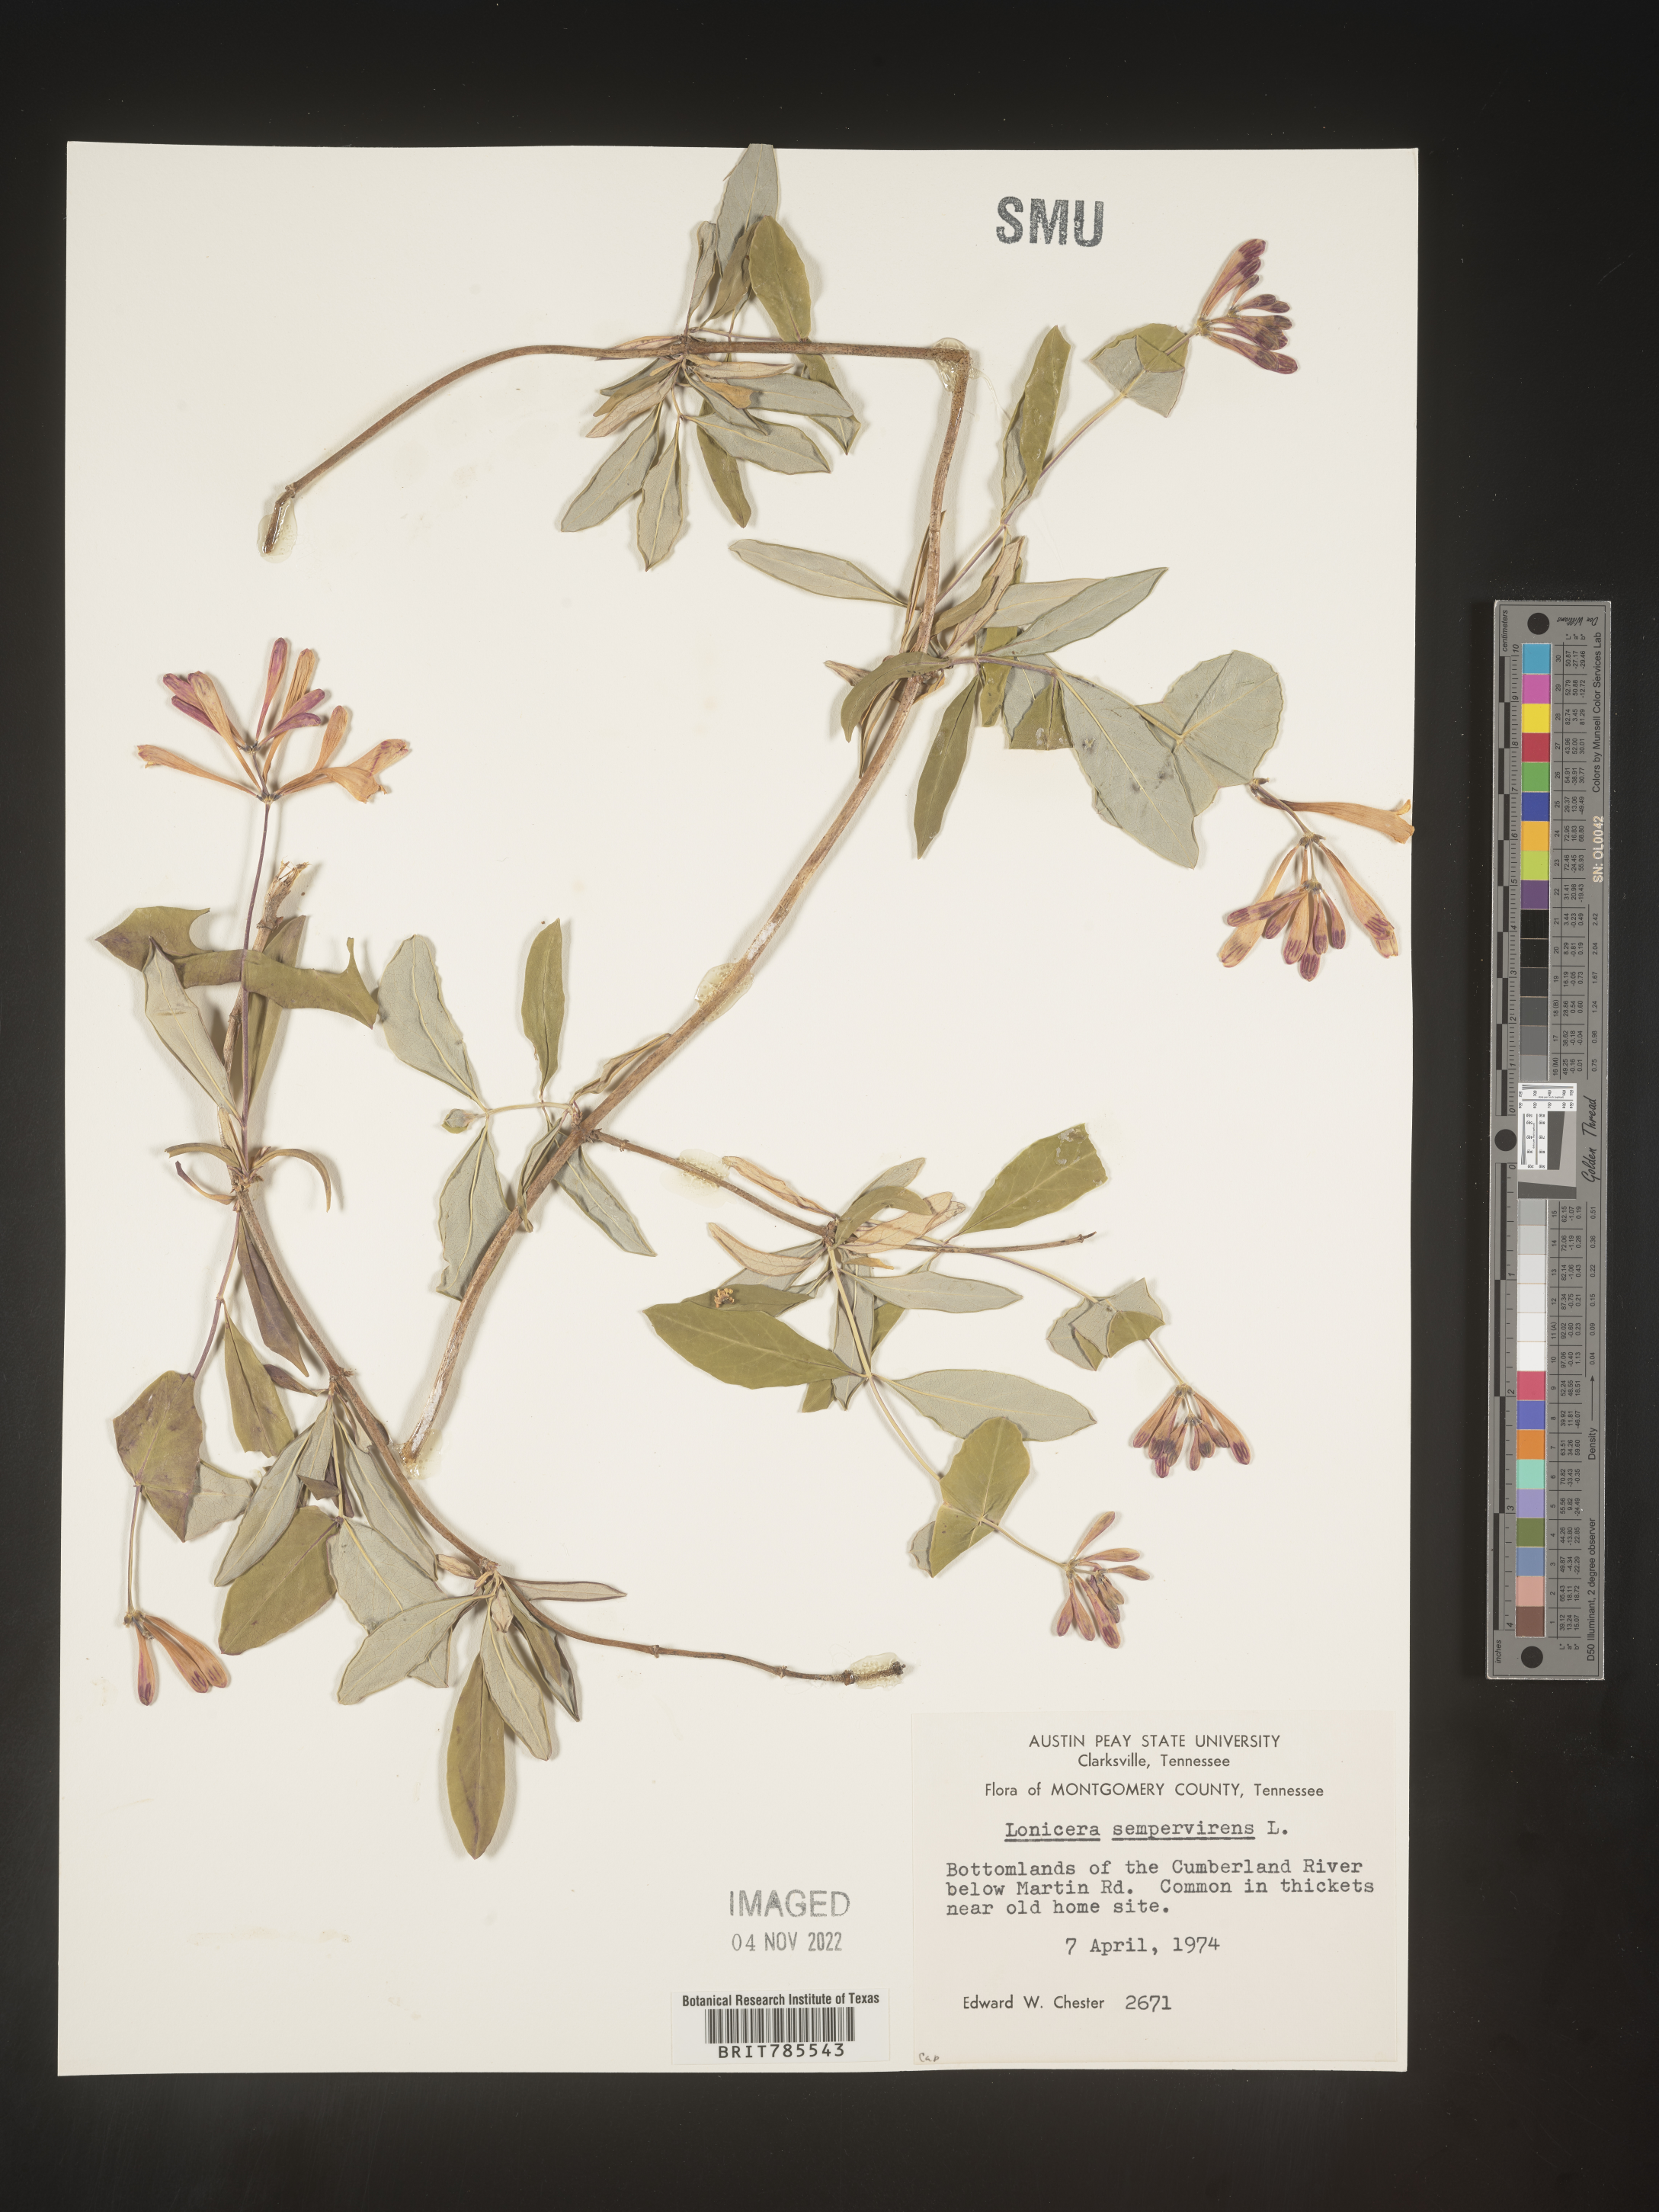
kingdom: Plantae
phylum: Tracheophyta
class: Magnoliopsida
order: Dipsacales
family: Caprifoliaceae
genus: Lonicera
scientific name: Lonicera sempervirens
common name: Coral honeysuckle
